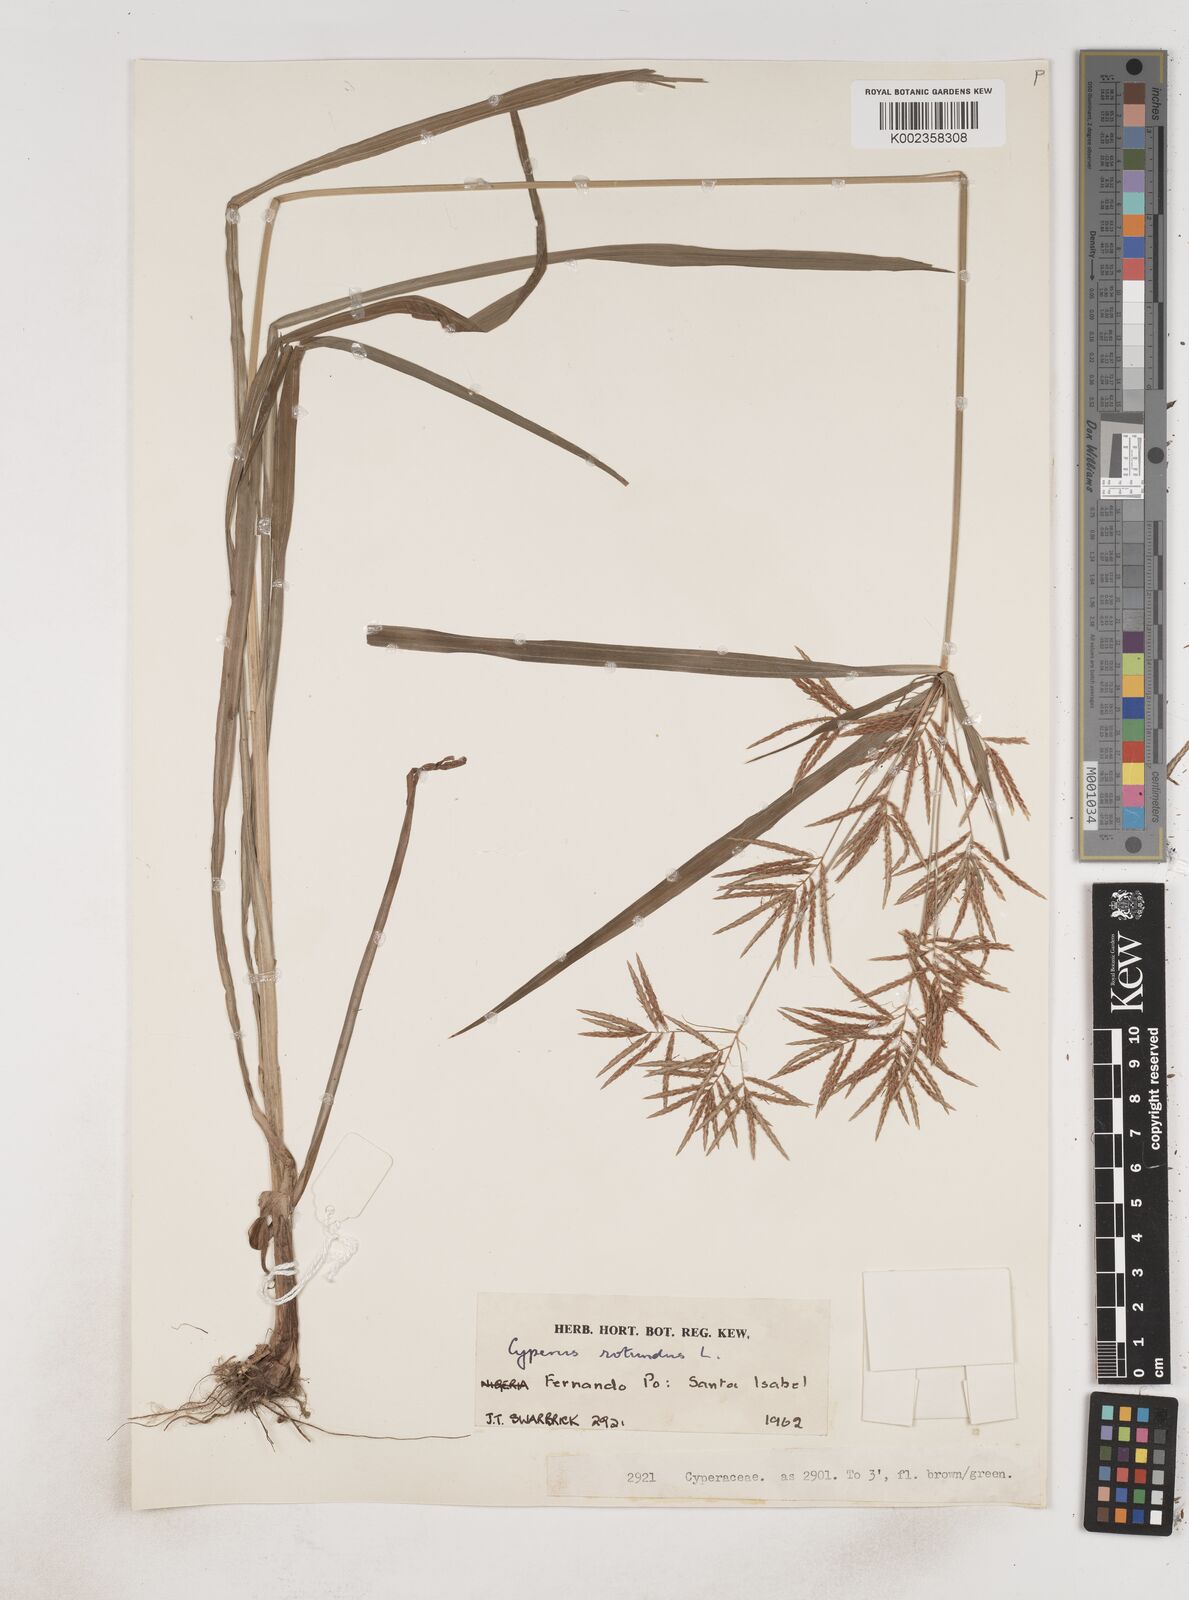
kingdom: Plantae
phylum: Tracheophyta
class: Liliopsida
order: Poales
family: Cyperaceae
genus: Cyperus
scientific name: Cyperus rotundus
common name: Nutgrass
